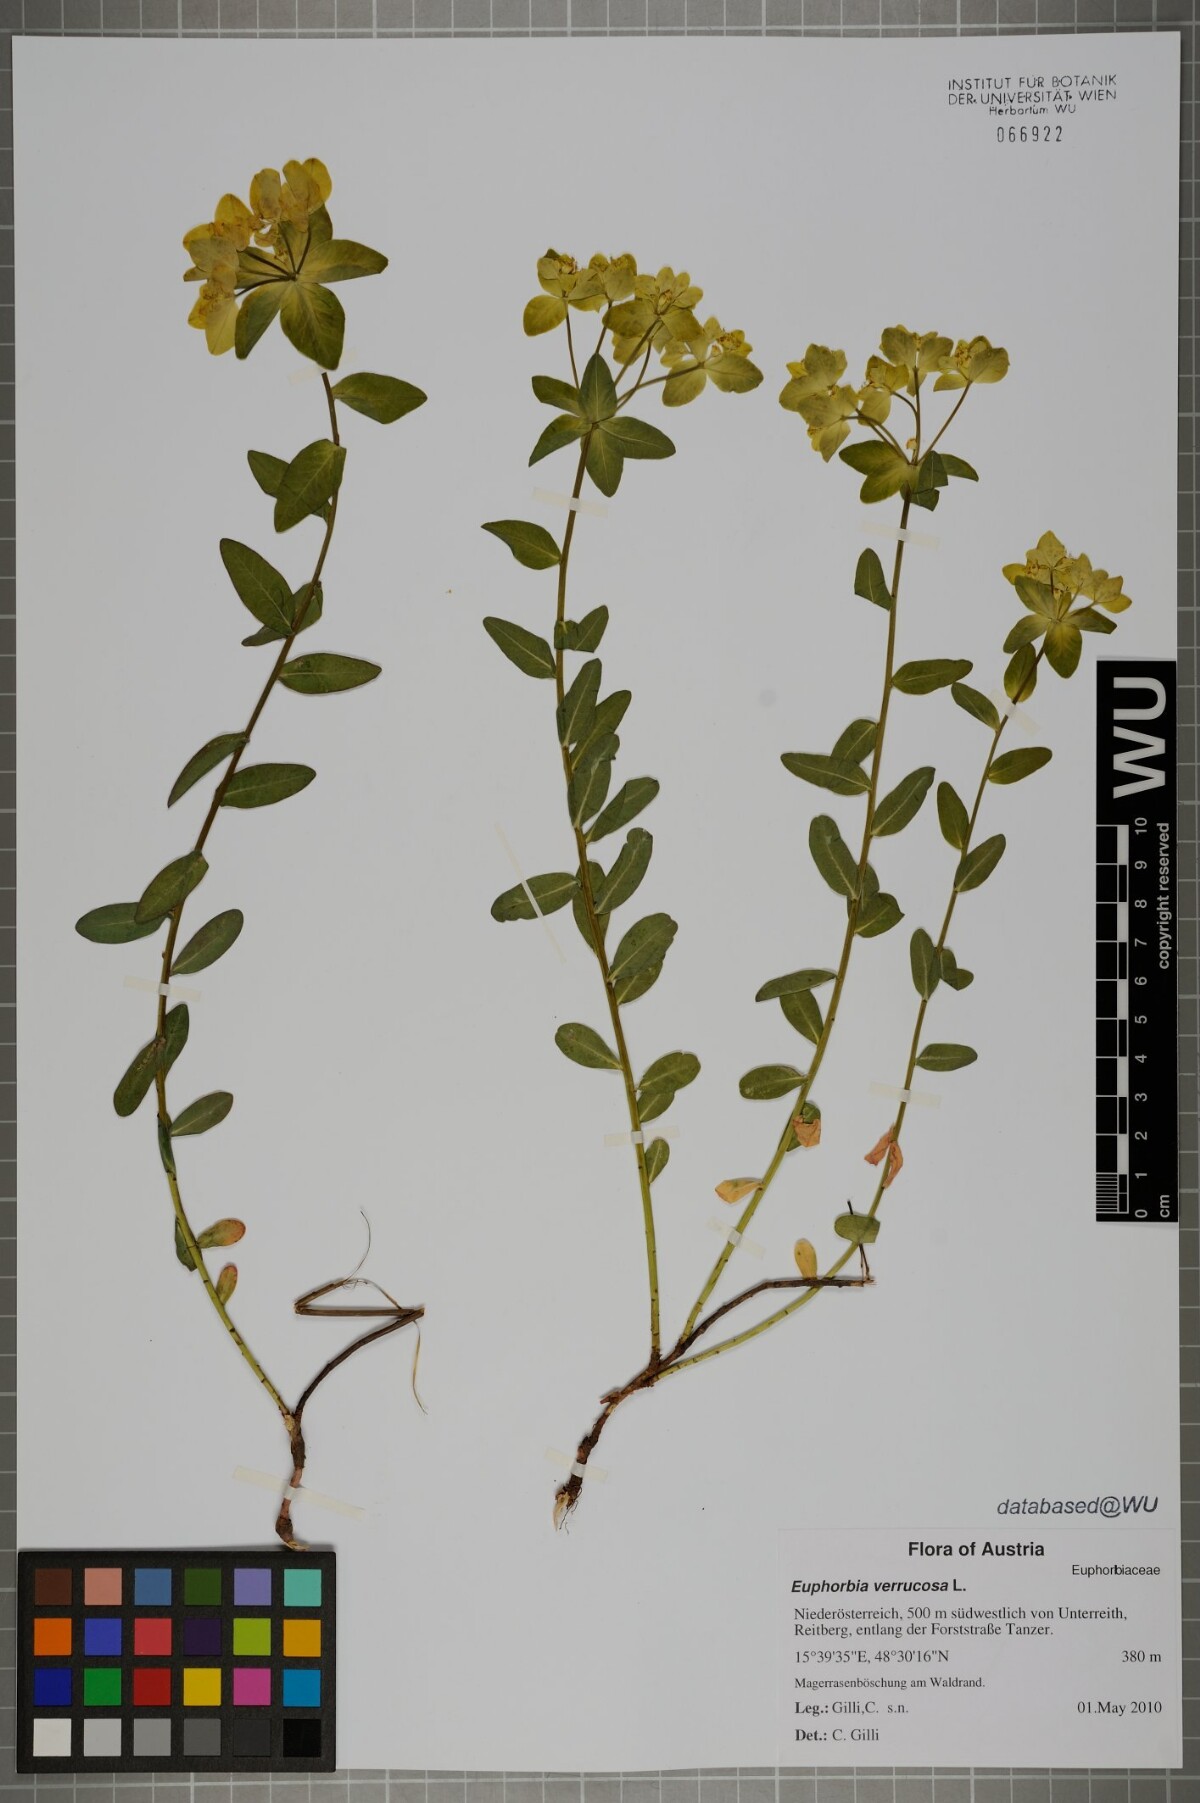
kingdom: Plantae
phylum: Tracheophyta
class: Magnoliopsida
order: Malpighiales
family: Euphorbiaceae
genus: Euphorbia
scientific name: Euphorbia verrucosa
